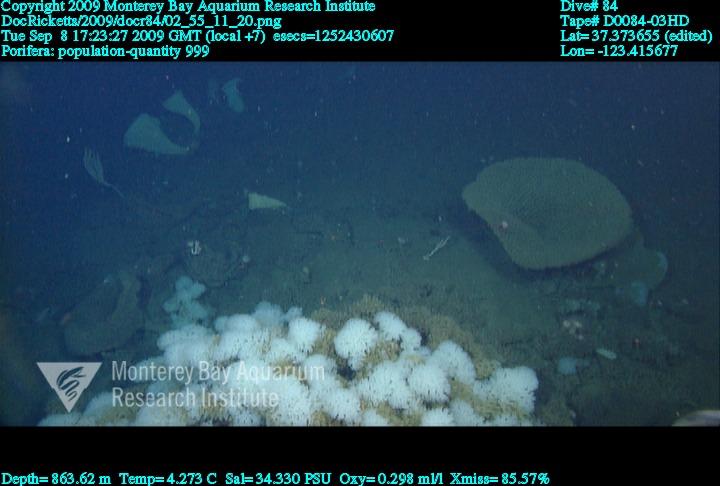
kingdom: Animalia
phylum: Porifera
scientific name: Porifera
